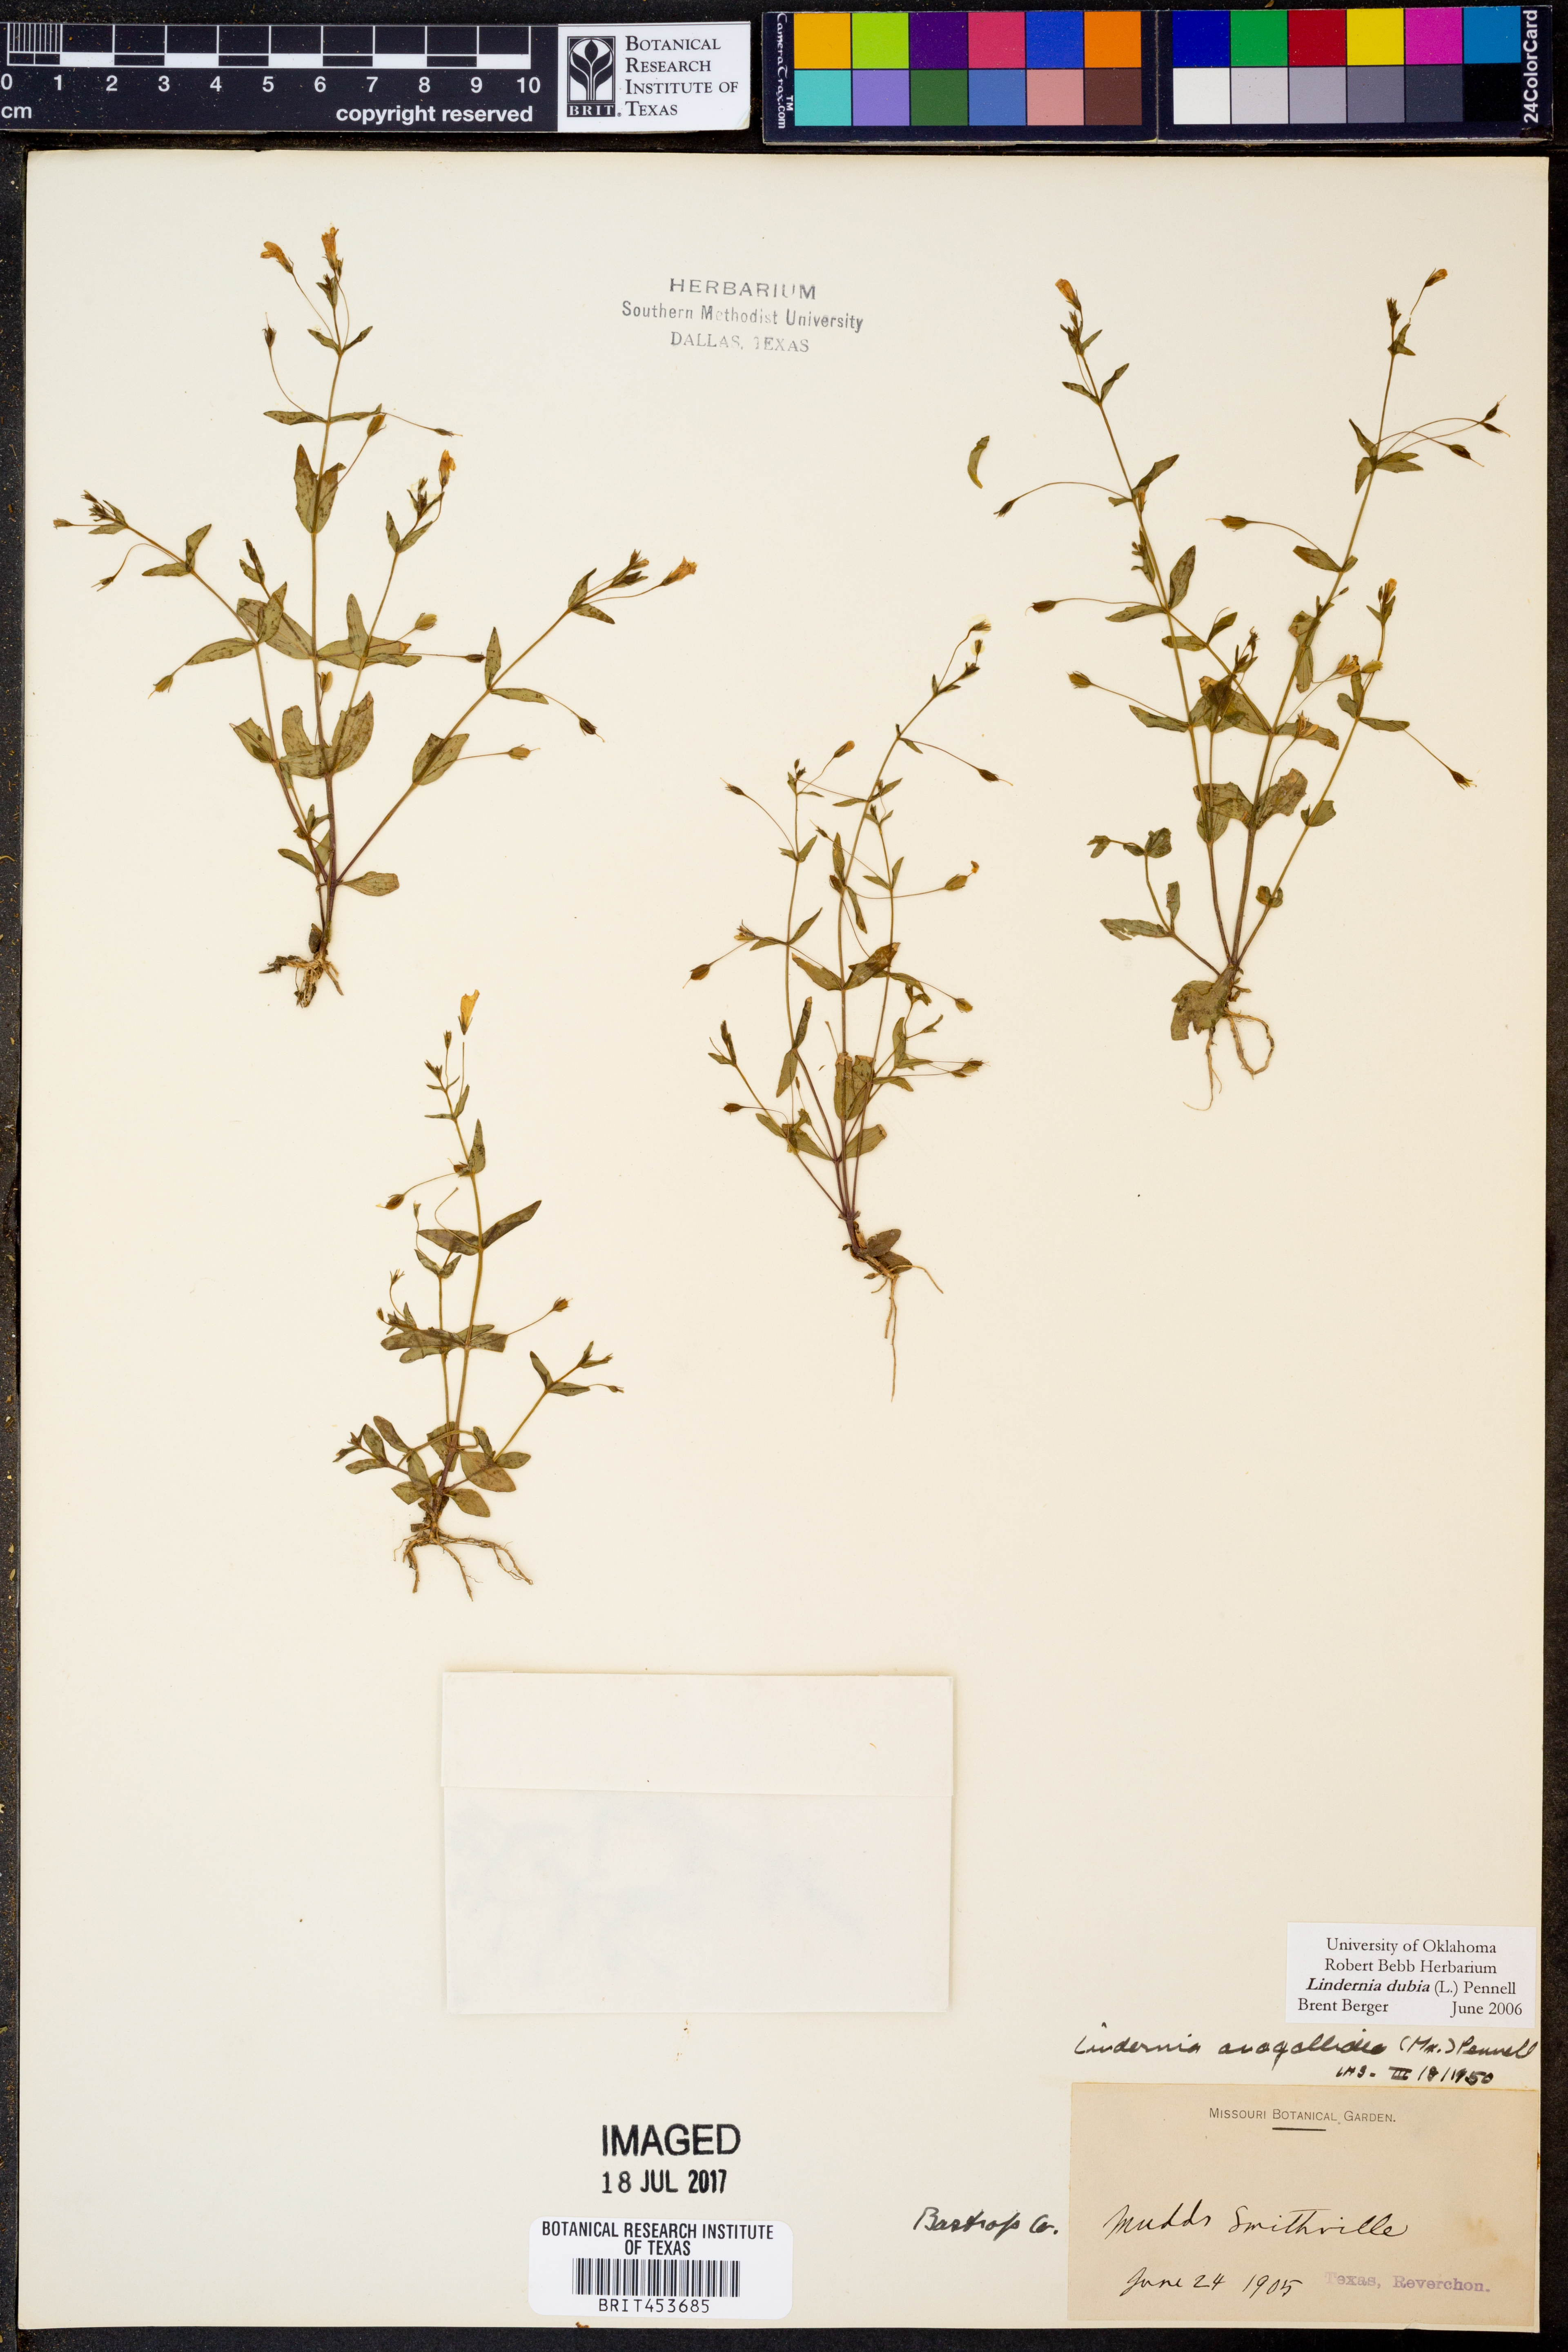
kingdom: Plantae
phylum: Tracheophyta
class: Magnoliopsida
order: Lamiales
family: Linderniaceae
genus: Lindernia
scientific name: Lindernia dubia
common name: Annual false pimpernel
